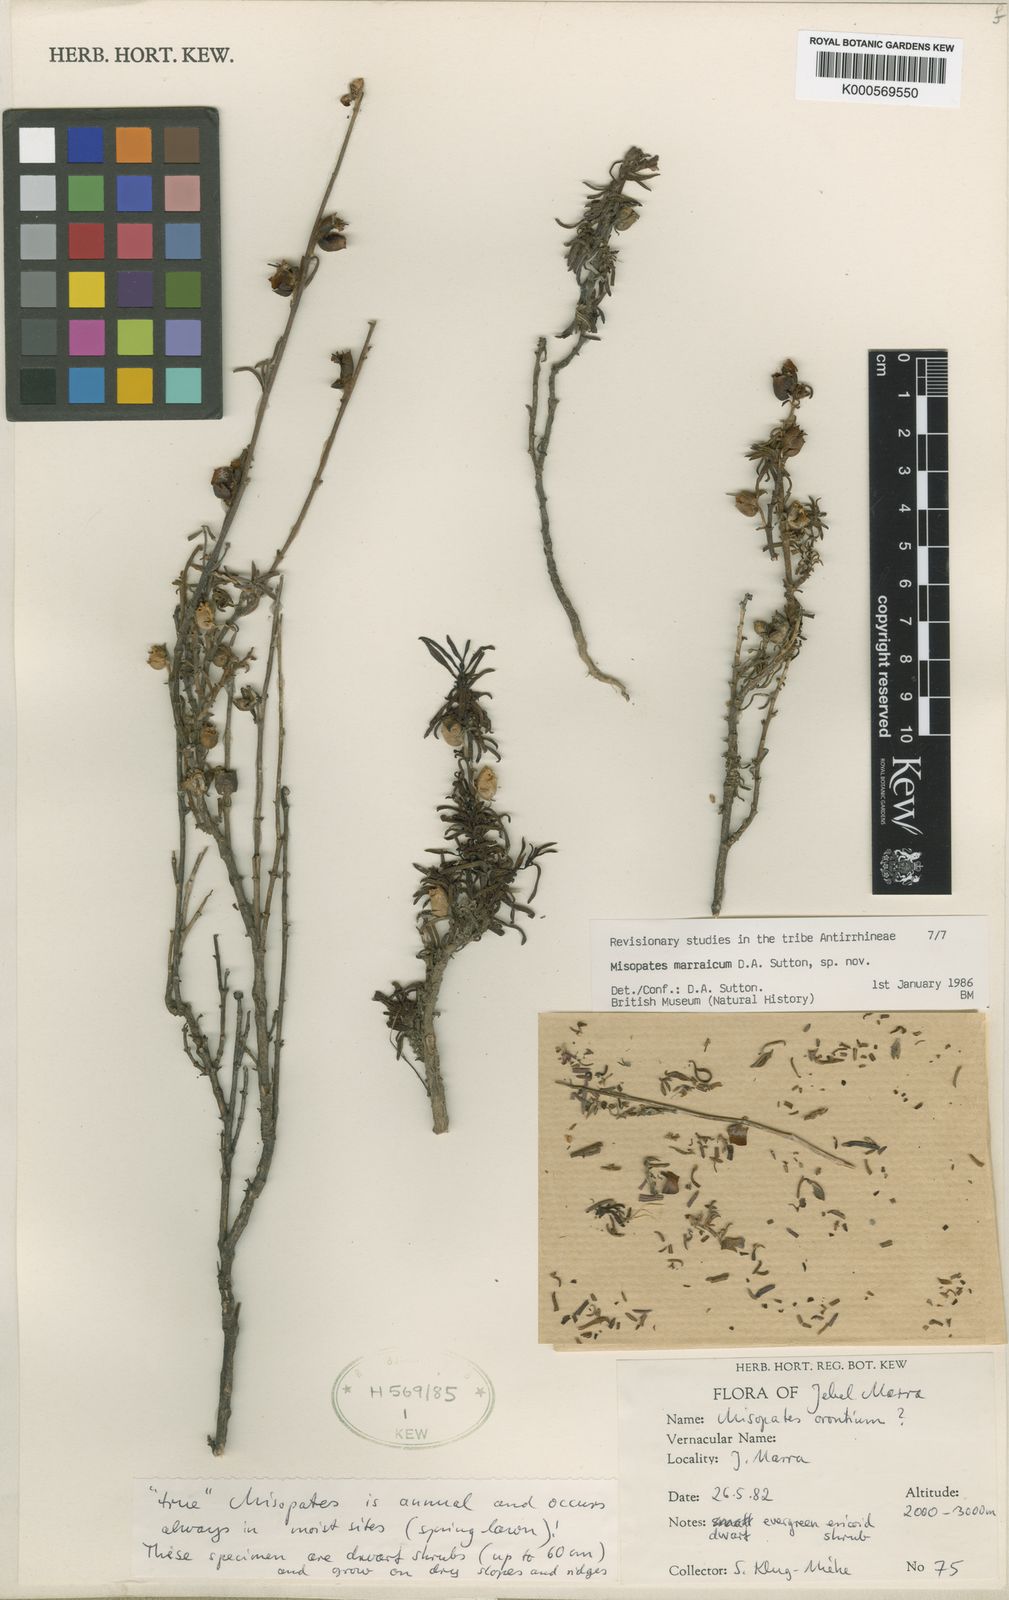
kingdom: Plantae
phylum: Tracheophyta
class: Magnoliopsida
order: Lamiales
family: Plantaginaceae
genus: Misopates
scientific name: Misopates marraicum
